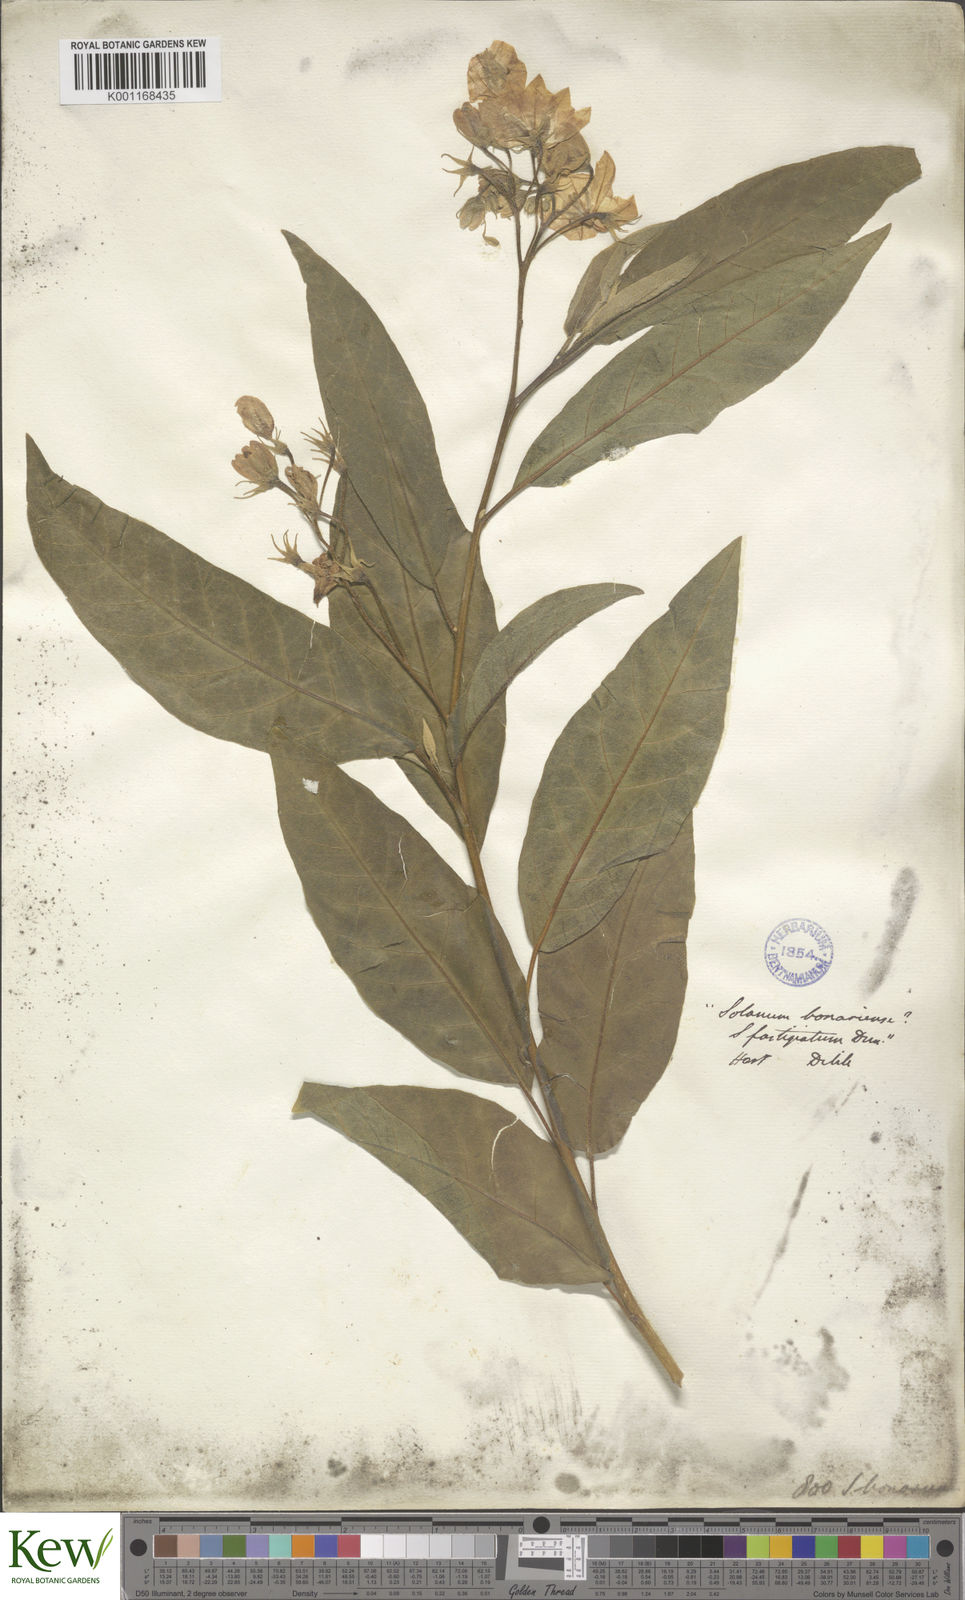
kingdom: Plantae
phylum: Tracheophyta
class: Magnoliopsida
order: Solanales
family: Solanaceae
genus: Solanum
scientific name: Solanum bonariense
